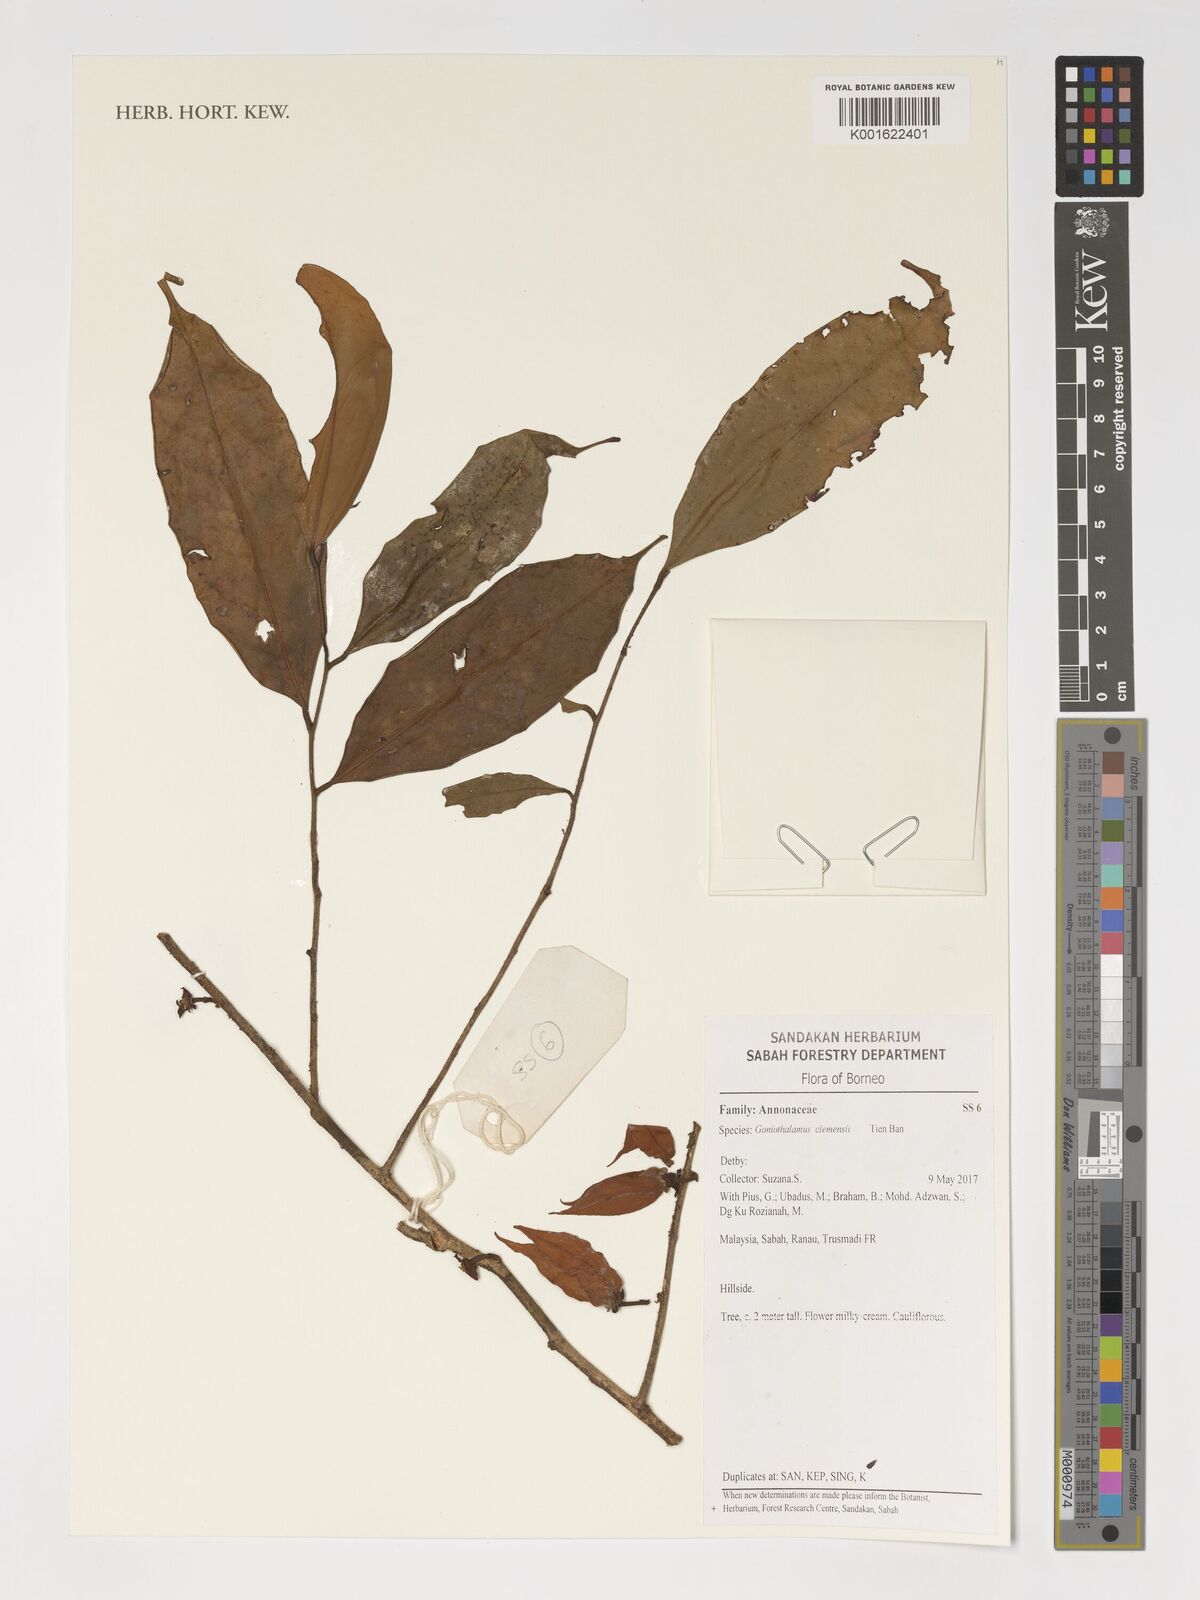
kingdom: Plantae
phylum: Tracheophyta
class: Magnoliopsida
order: Magnoliales
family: Annonaceae
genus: Goniothalamus
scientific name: Goniothalamus clemensii
